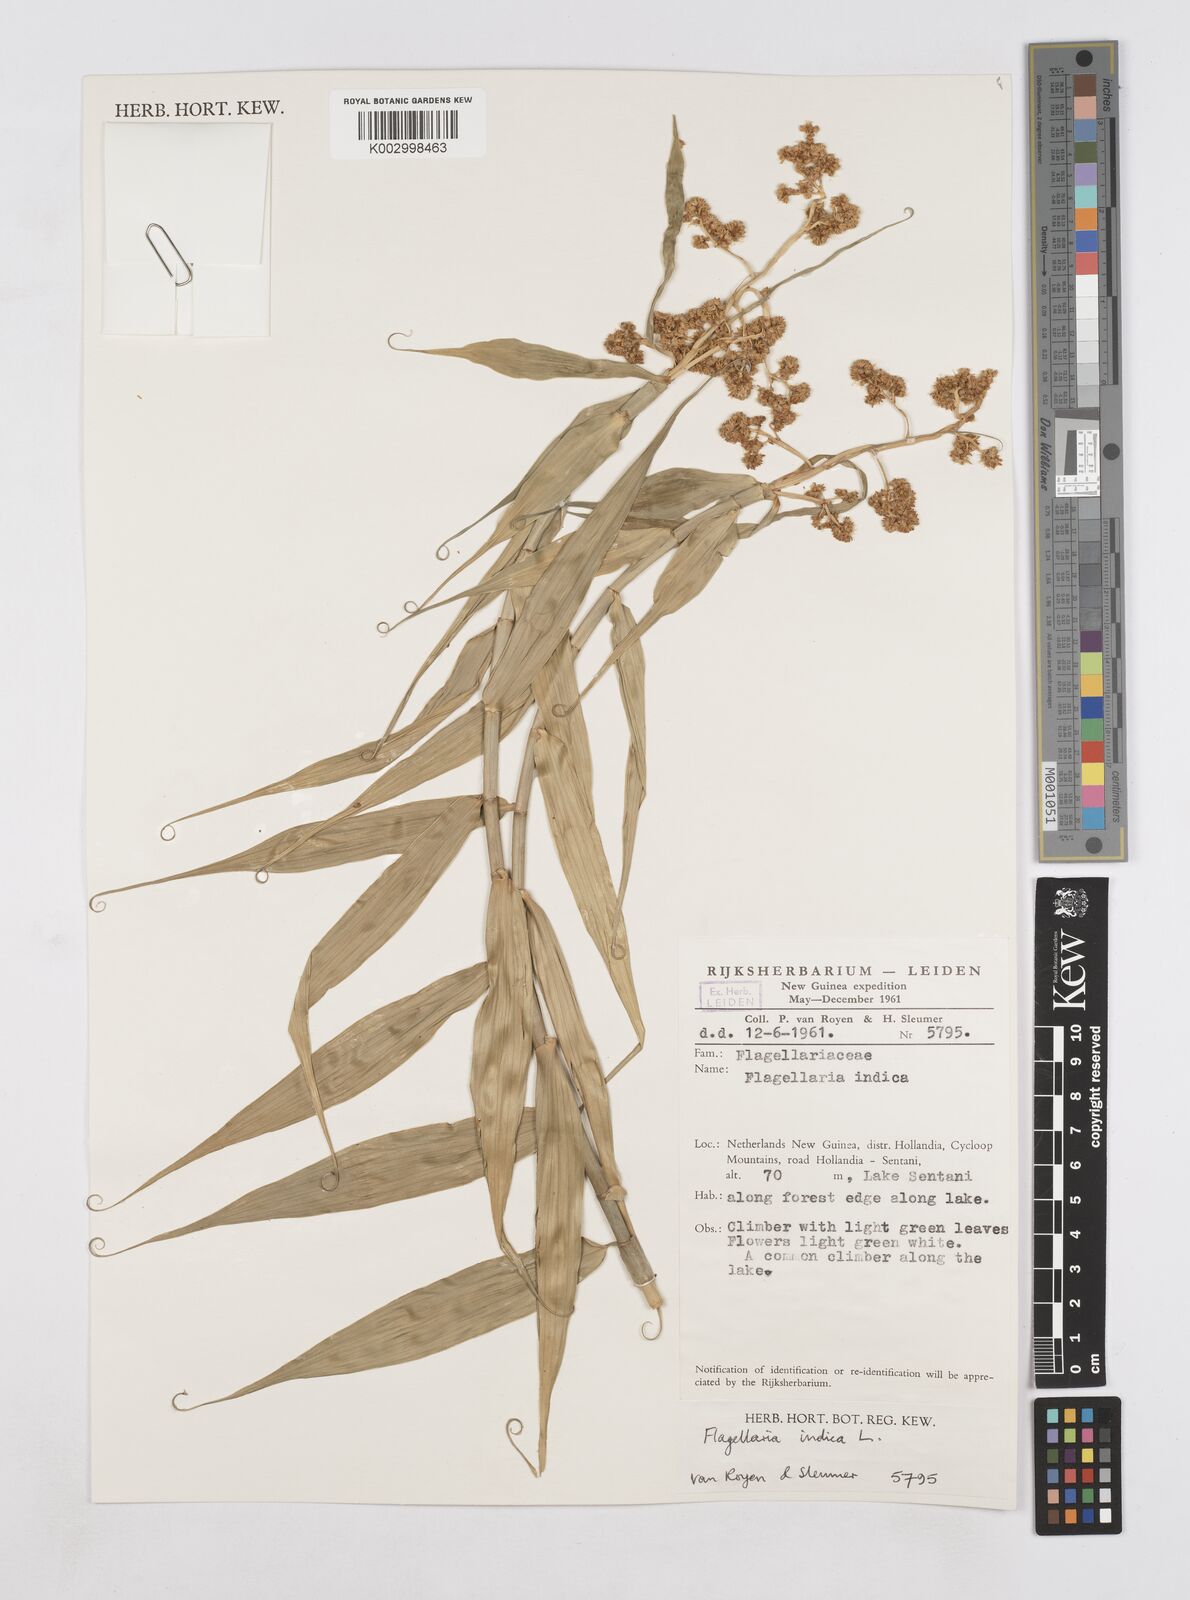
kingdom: Plantae
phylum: Tracheophyta
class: Liliopsida
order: Poales
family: Flagellariaceae
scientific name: Flagellariaceae
